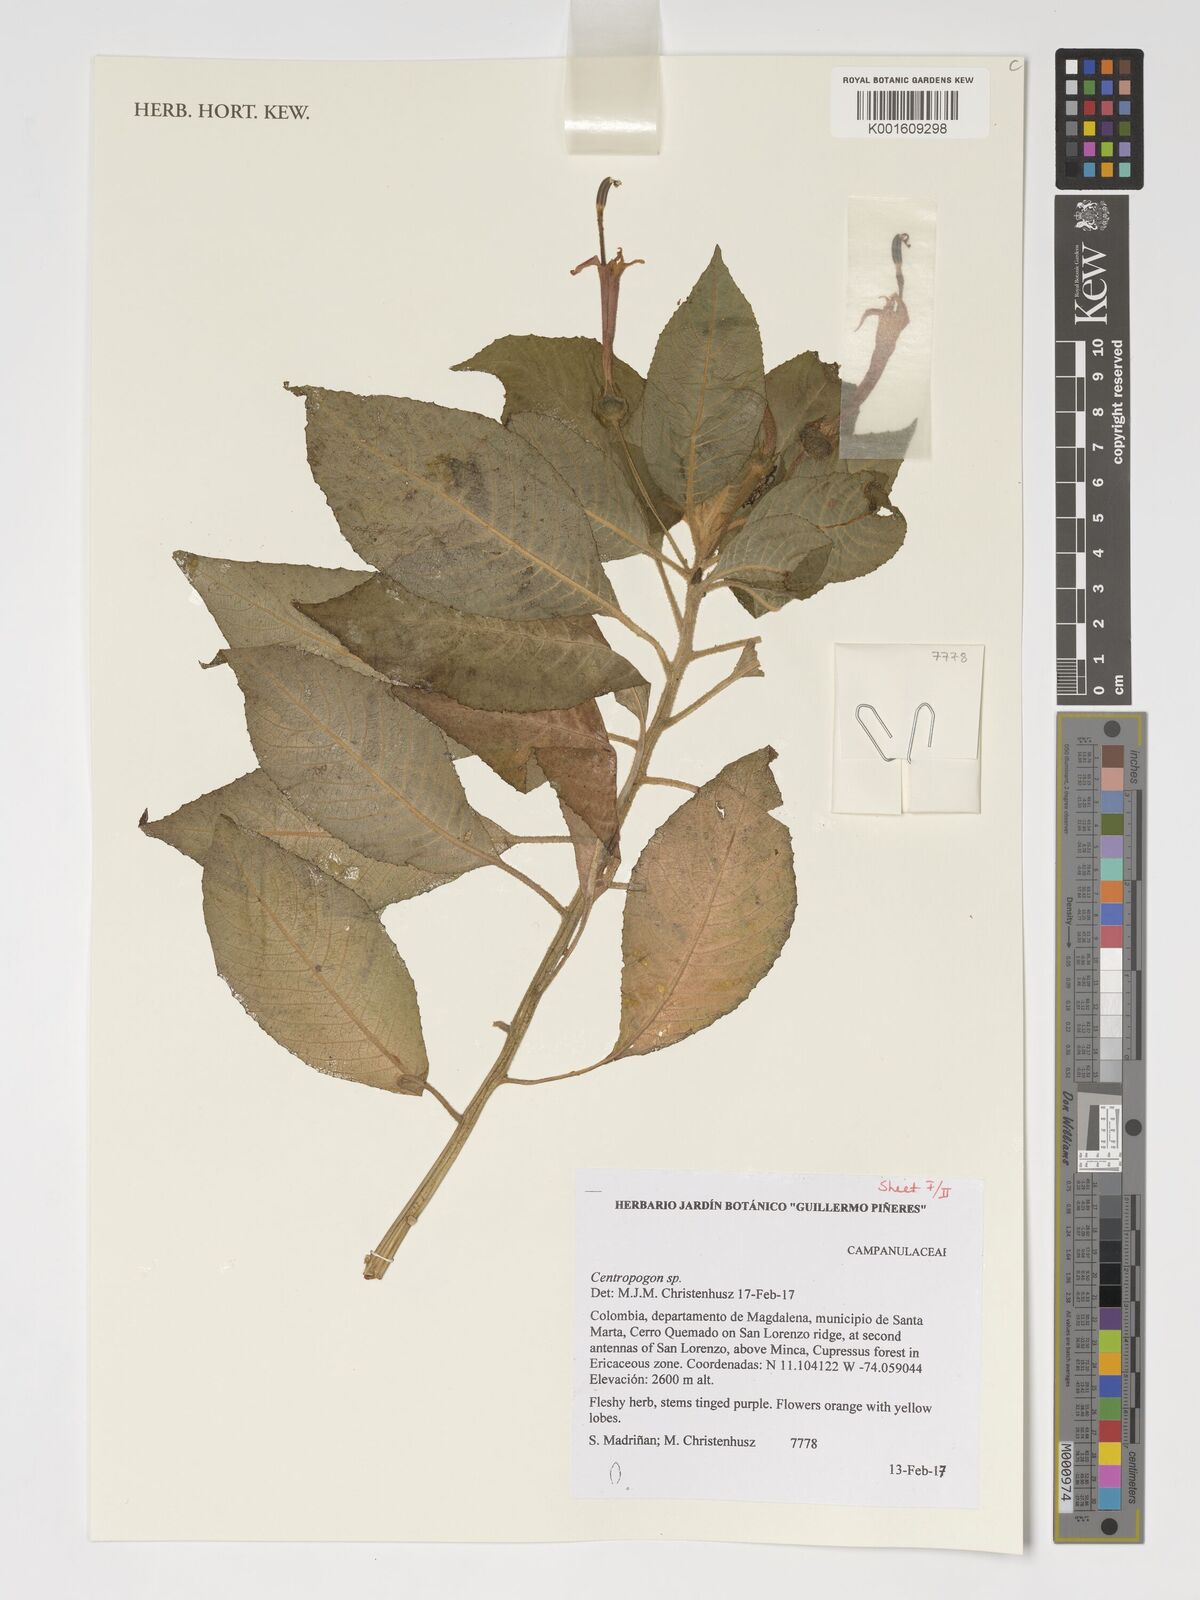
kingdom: Plantae
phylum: Tracheophyta
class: Magnoliopsida
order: Asterales
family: Campanulaceae
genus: Centropogon
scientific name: Centropogon
